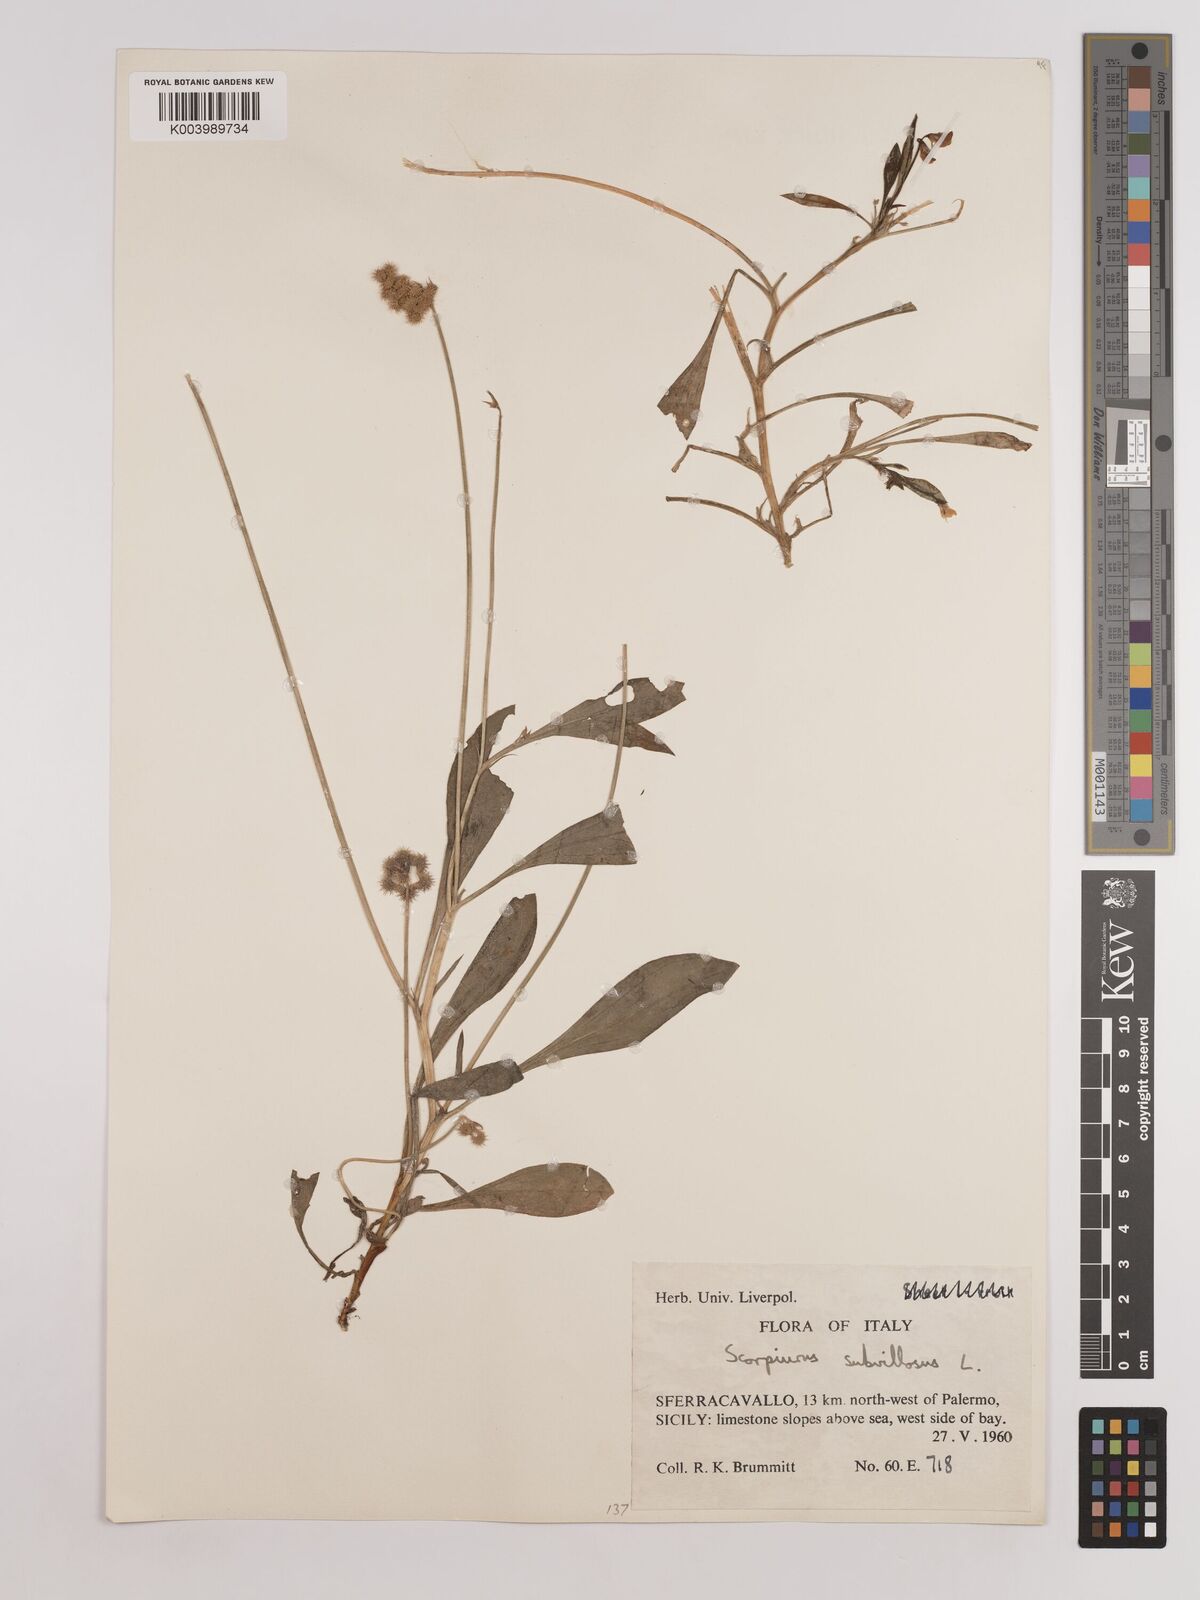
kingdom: Plantae
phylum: Tracheophyta
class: Magnoliopsida
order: Fabales
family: Fabaceae
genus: Scorpiurus
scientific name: Scorpiurus muricatus
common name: Caterpillar-plant
